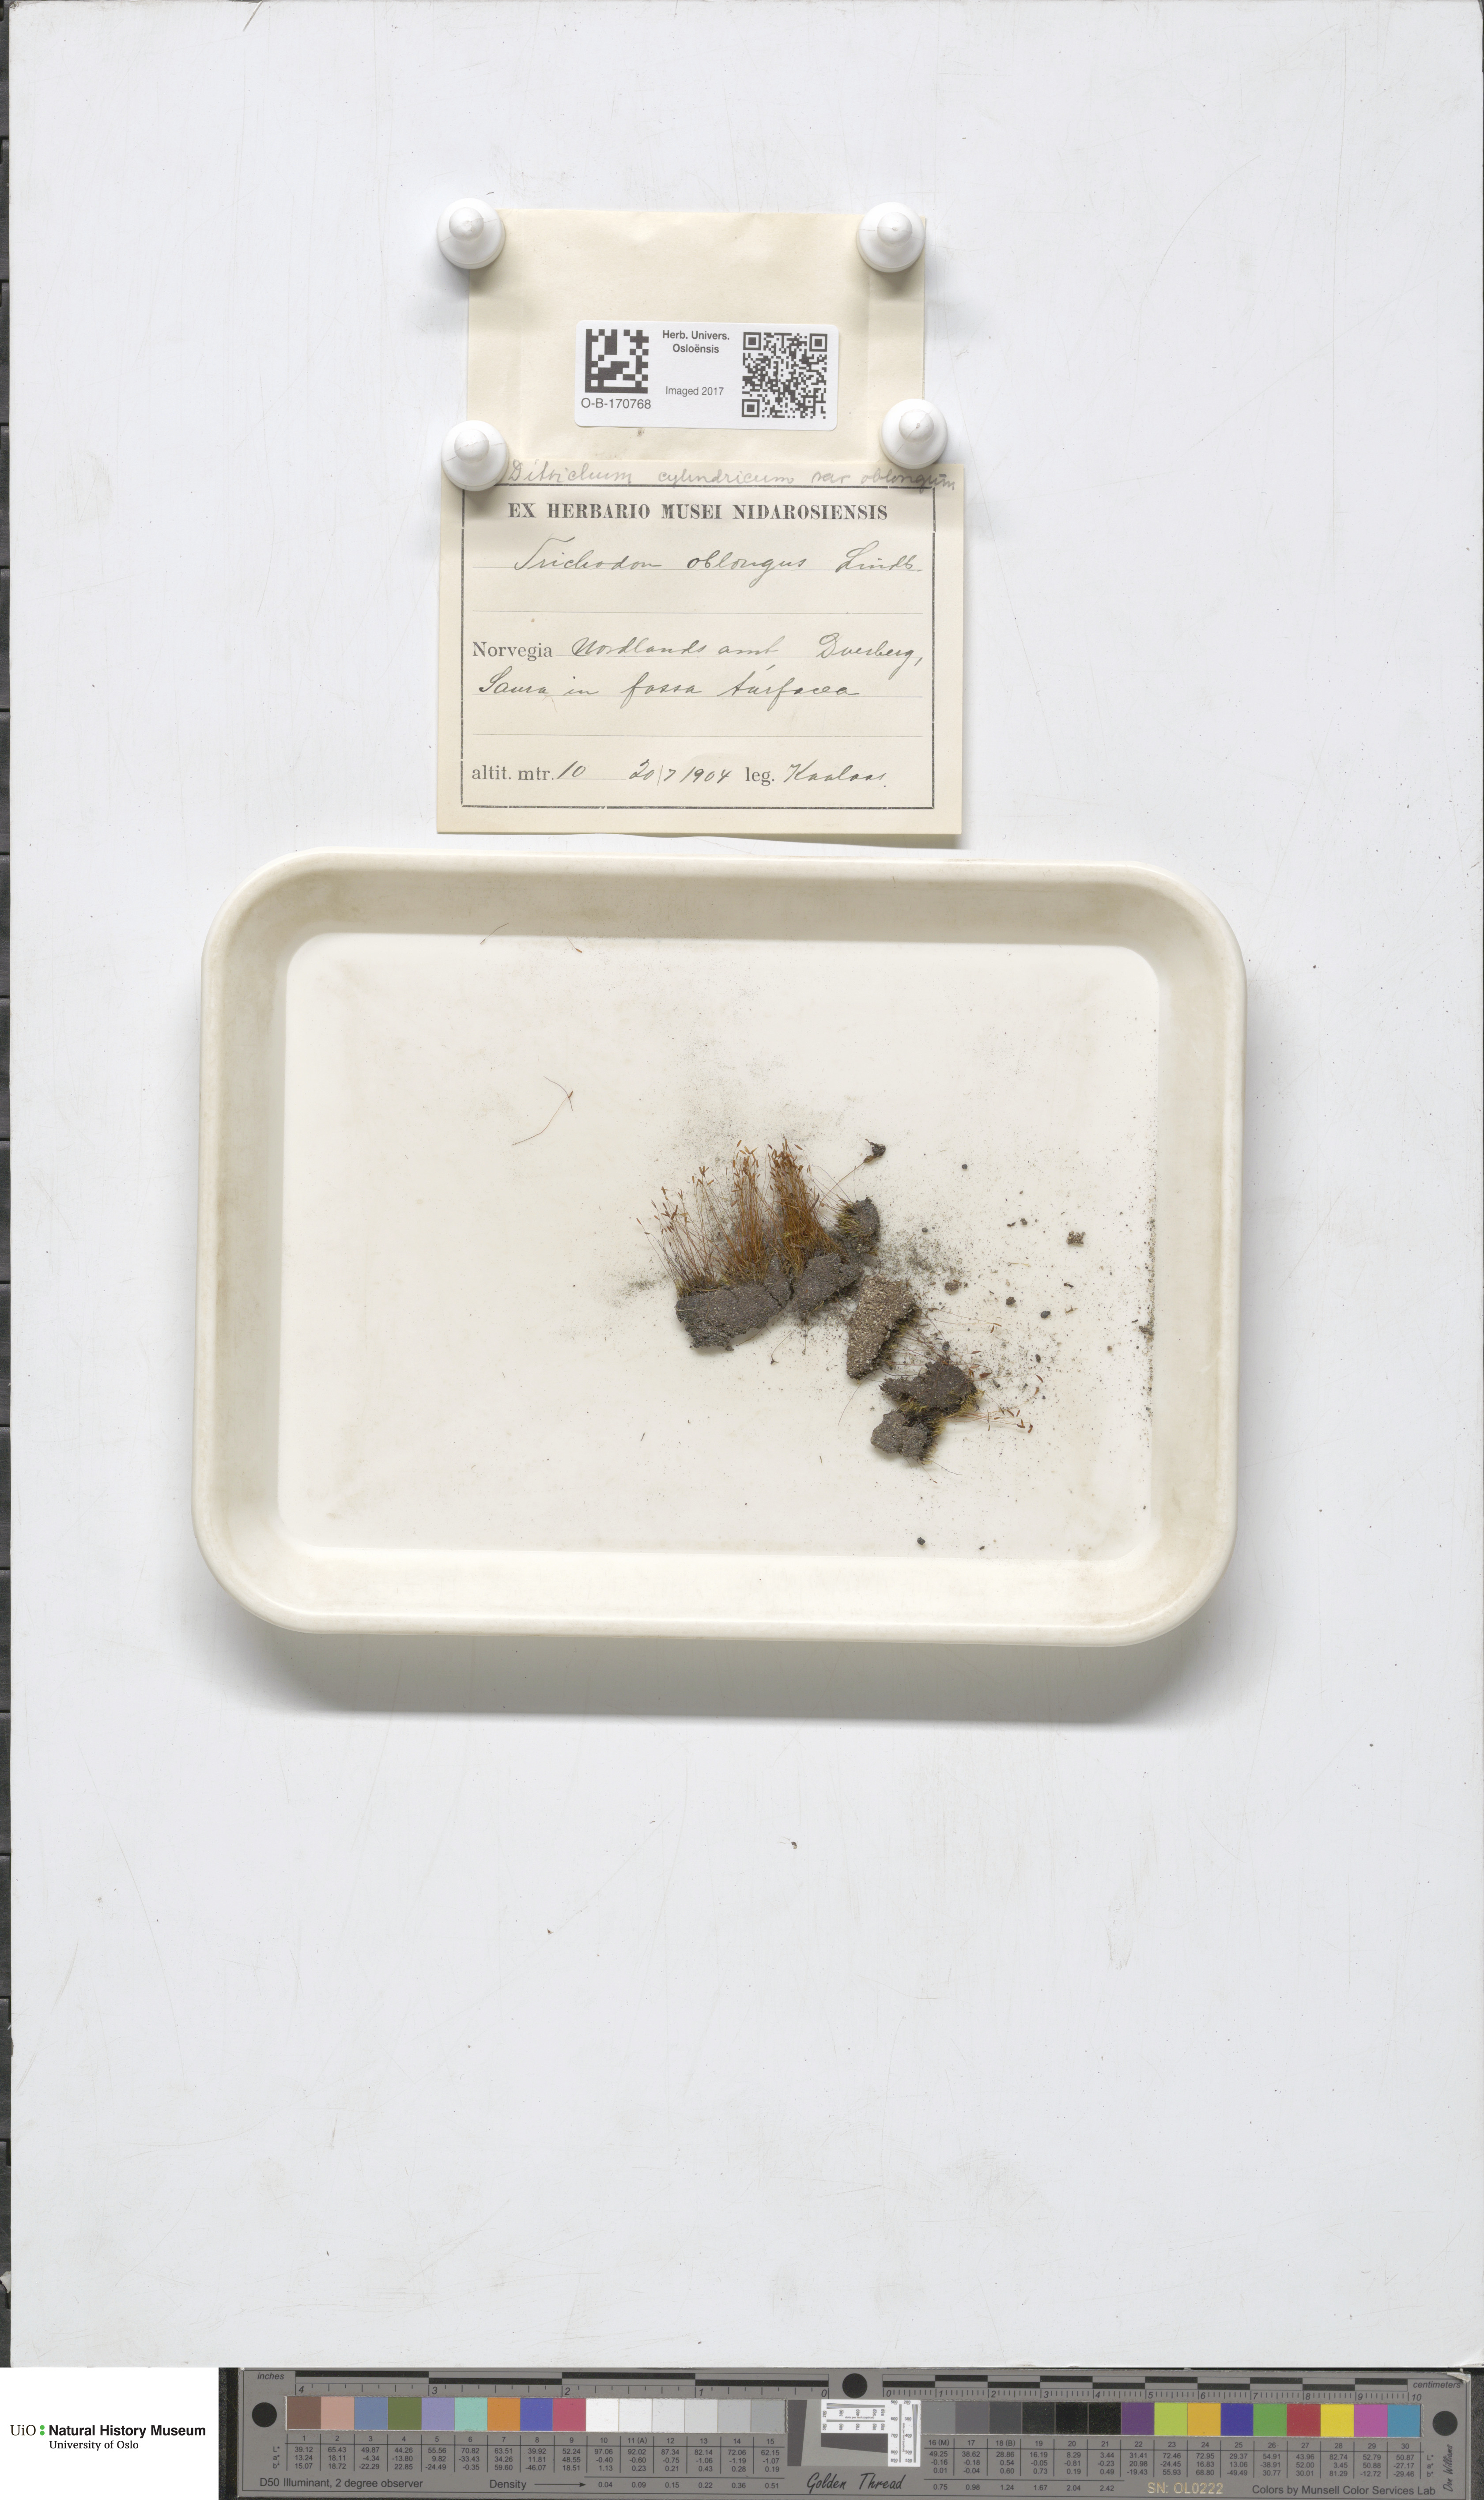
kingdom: Plantae
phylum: Bryophyta
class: Bryopsida
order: Dicranales
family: Ditrichaceae
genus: Trichodon
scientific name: Trichodon cylindricus
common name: Cylindric hairy-teeth moss
